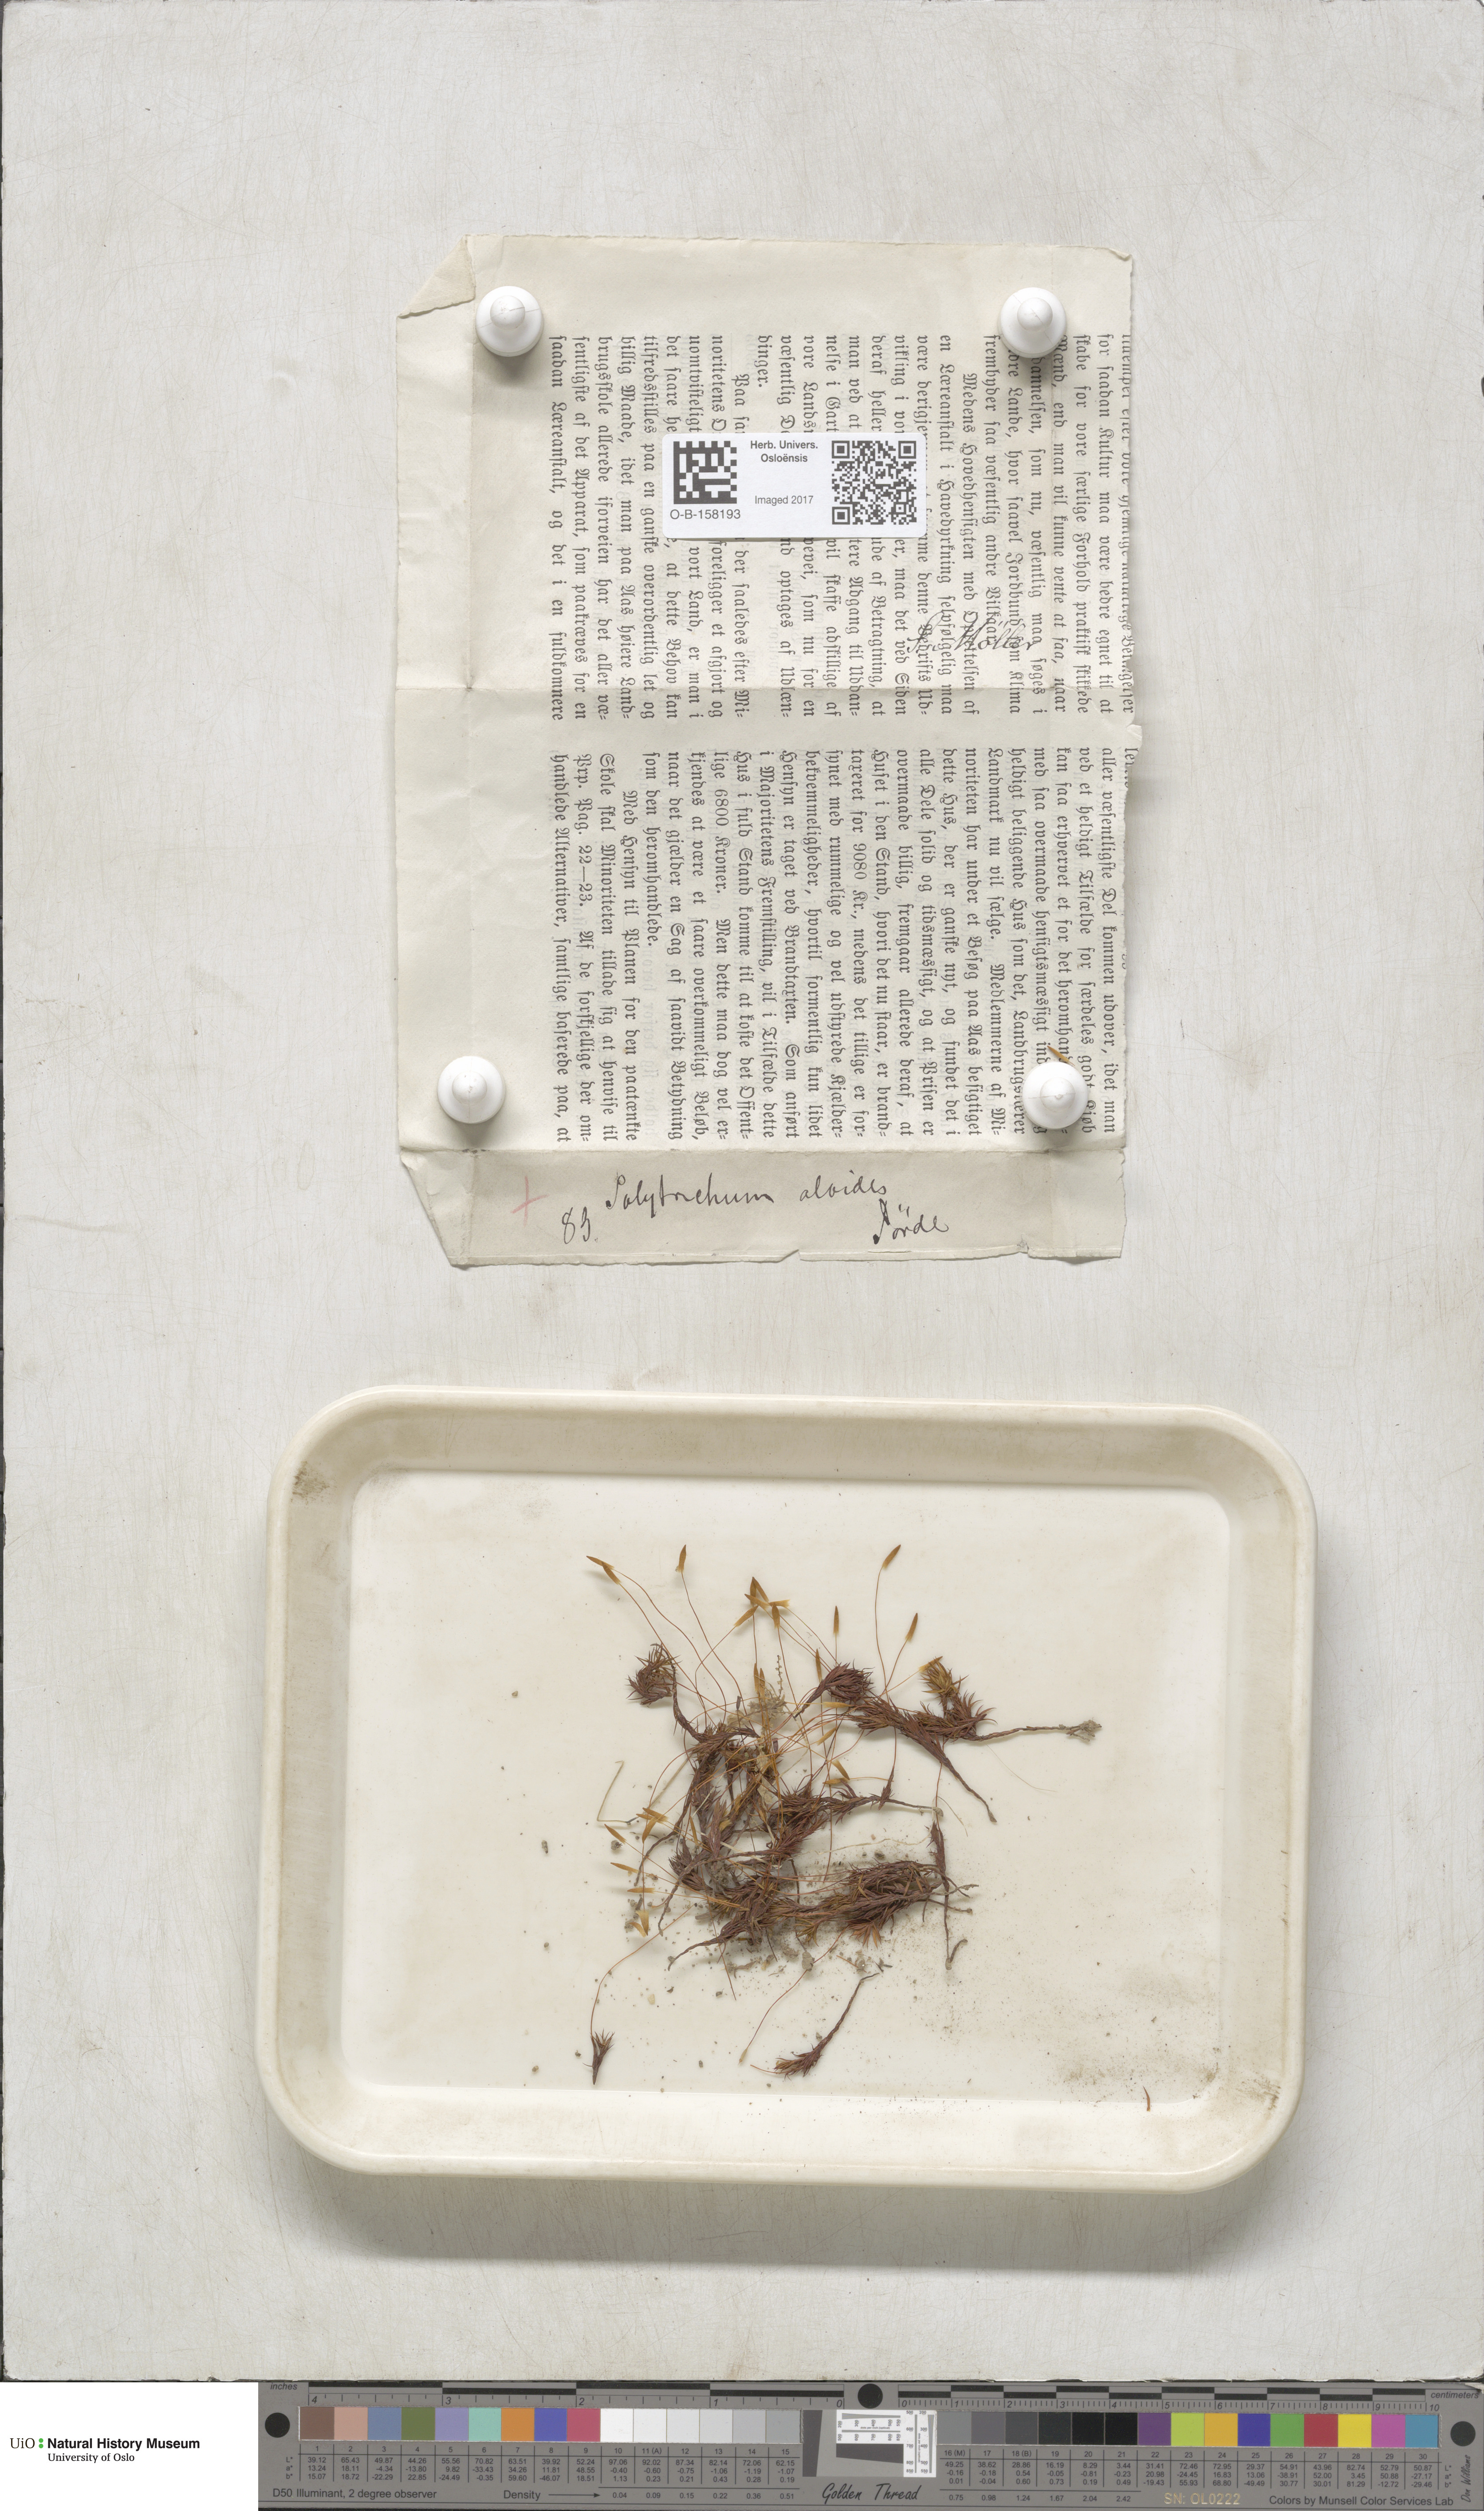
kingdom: Plantae
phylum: Bryophyta
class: Polytrichopsida
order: Polytrichales
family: Polytrichaceae
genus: Pogonatum
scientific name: Pogonatum aloides
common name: Aloe haircap
